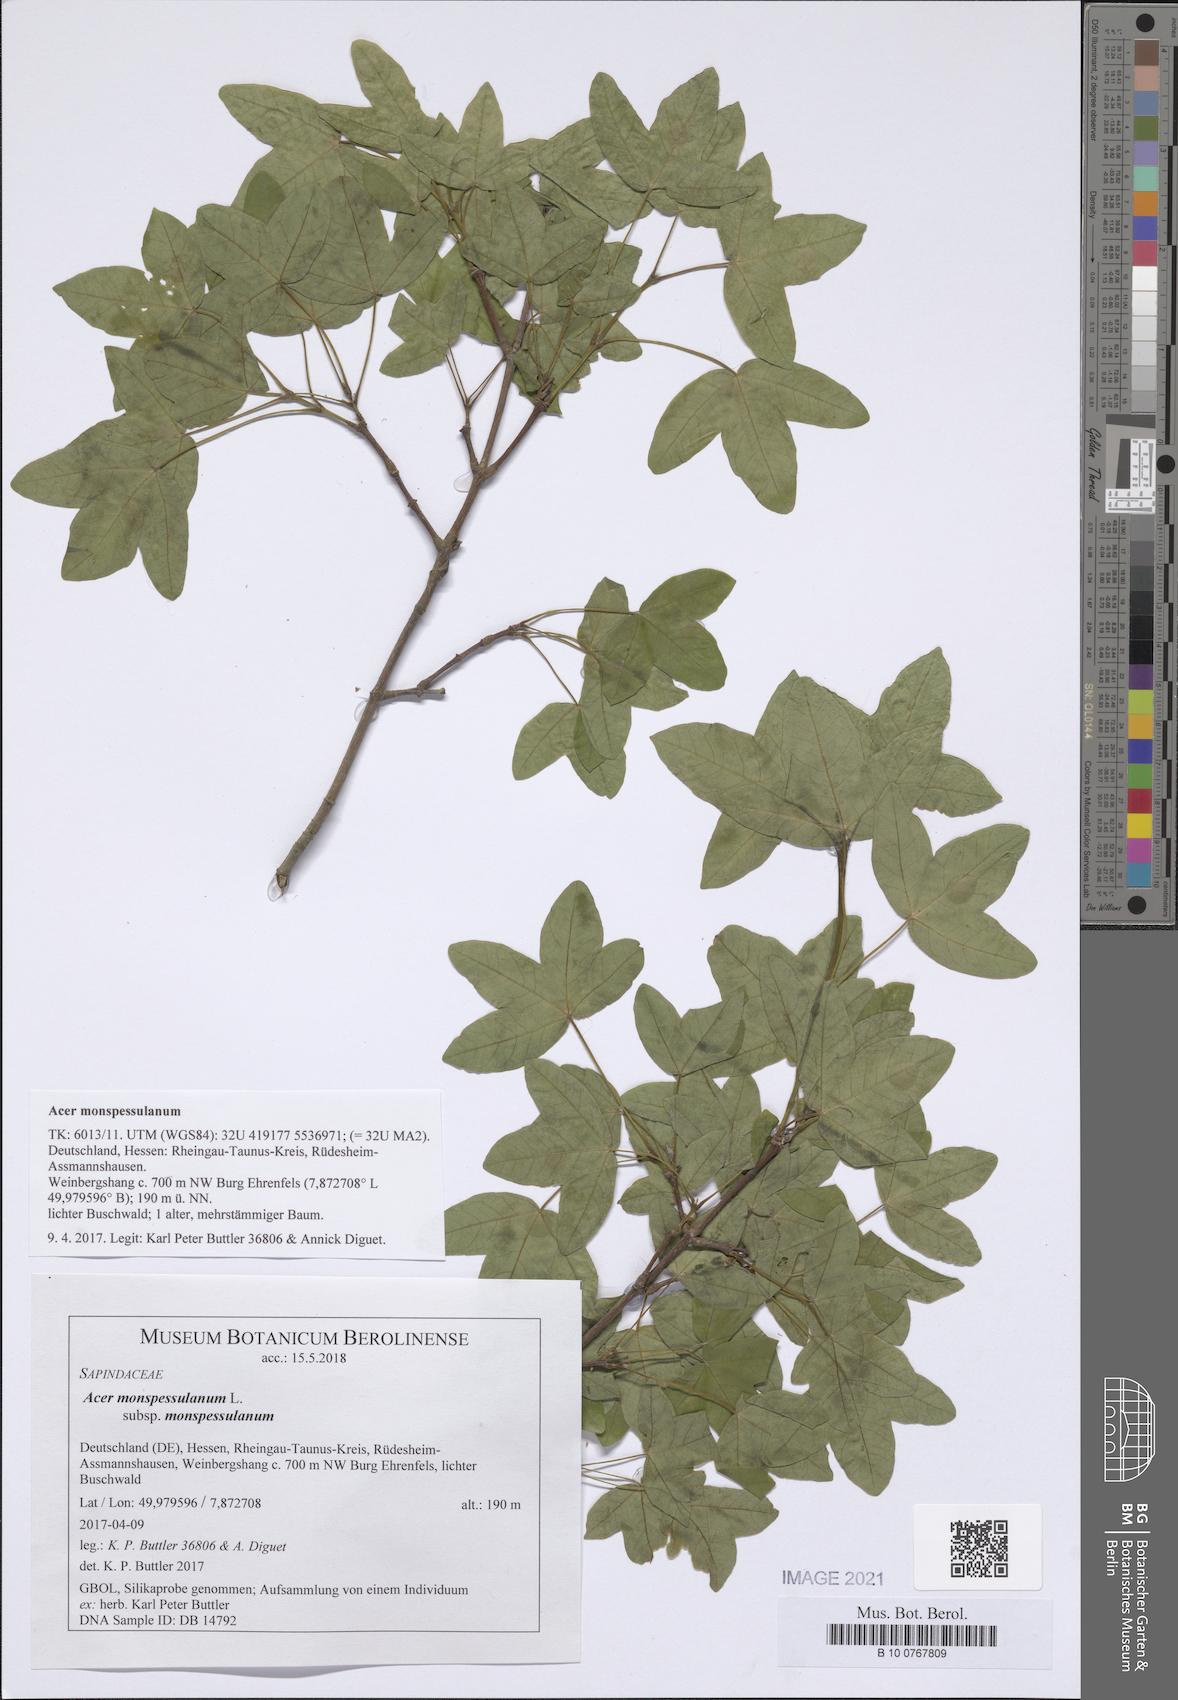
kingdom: Plantae
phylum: Tracheophyta
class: Magnoliopsida
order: Sapindales
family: Sapindaceae
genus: Acer
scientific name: Acer monspessulanum
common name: Montpellier maple
